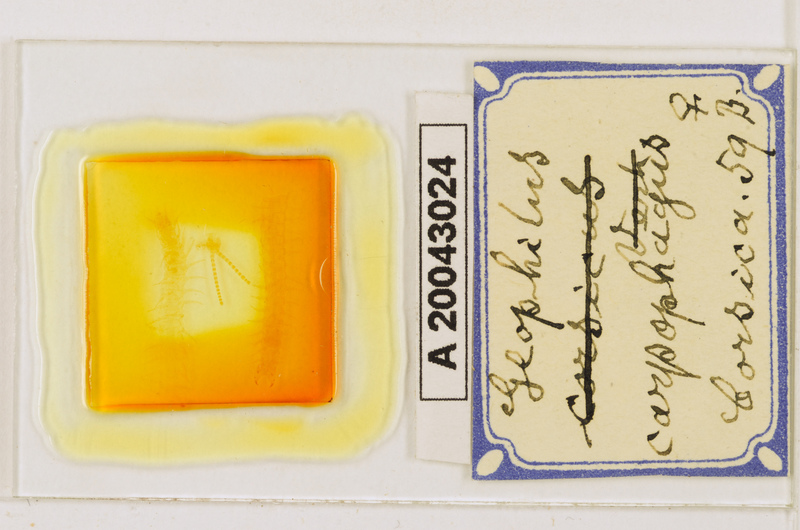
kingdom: Animalia
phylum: Arthropoda
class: Chilopoda
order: Geophilomorpha
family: Geophilidae
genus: Geophilus
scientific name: Geophilus carpophagus
